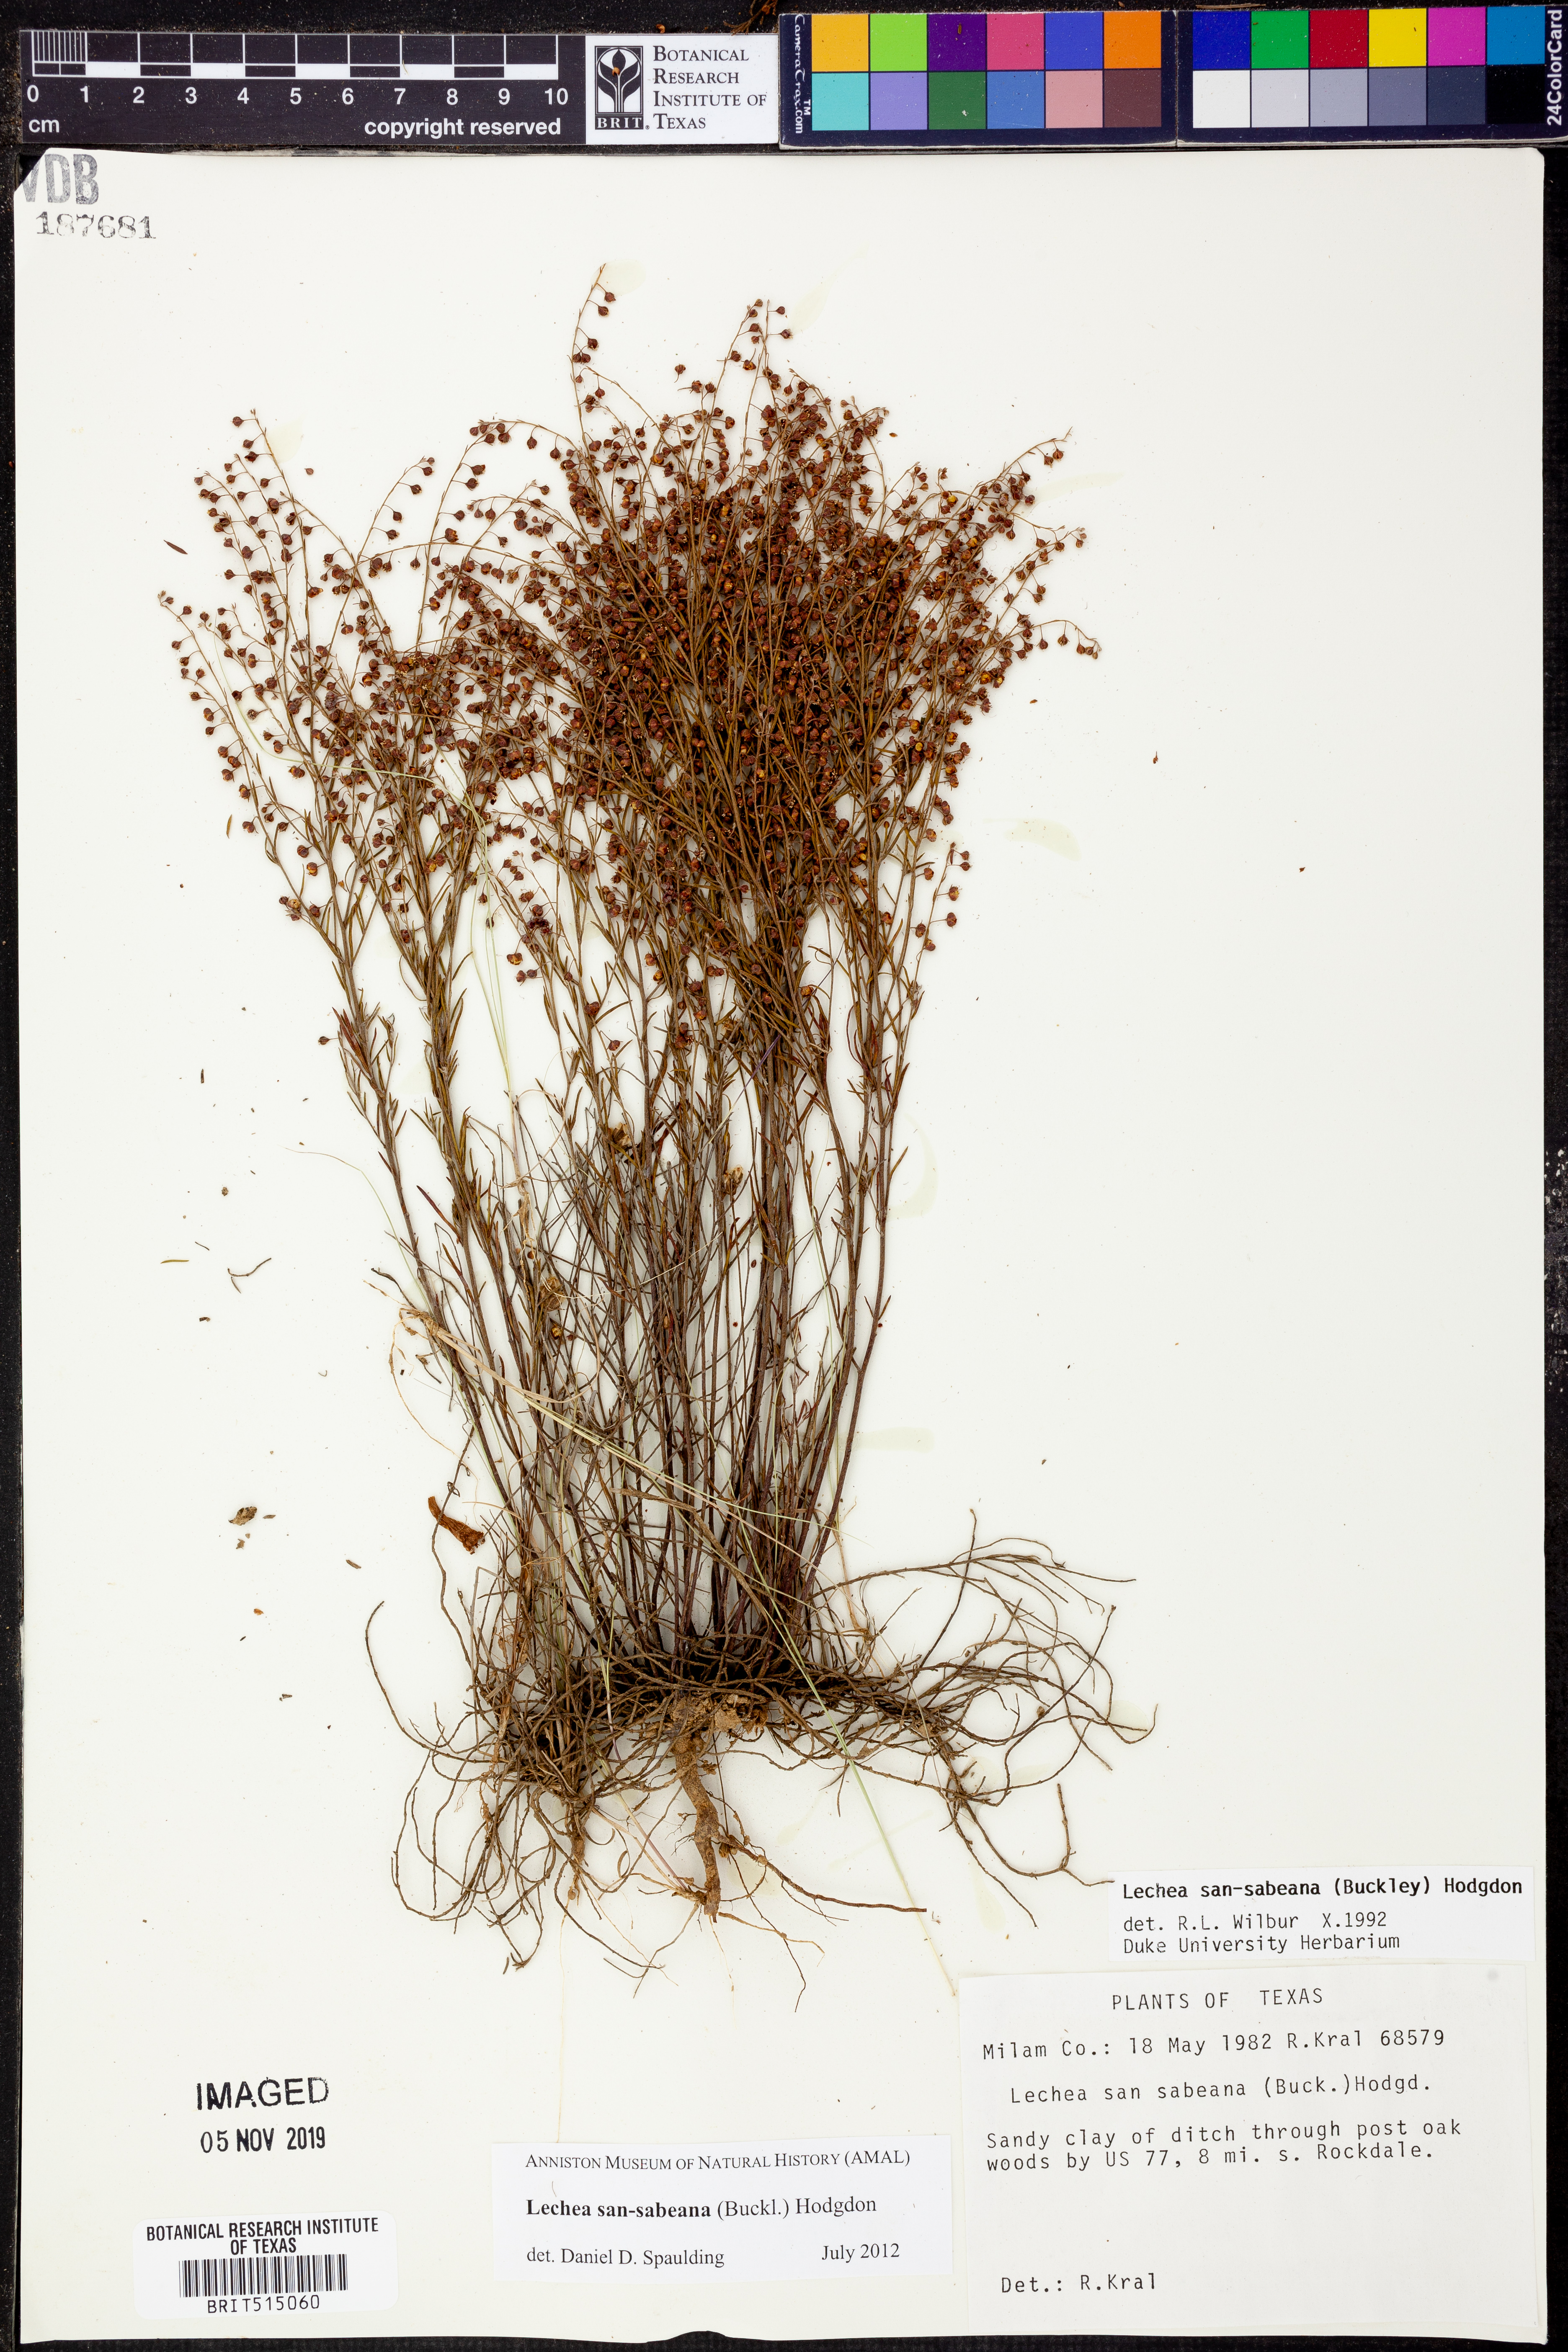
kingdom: Plantae
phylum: Tracheophyta
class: Magnoliopsida
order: Malvales
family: Cistaceae
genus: Lechea
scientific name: Lechea san-sabeana
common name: San saba pinweed
